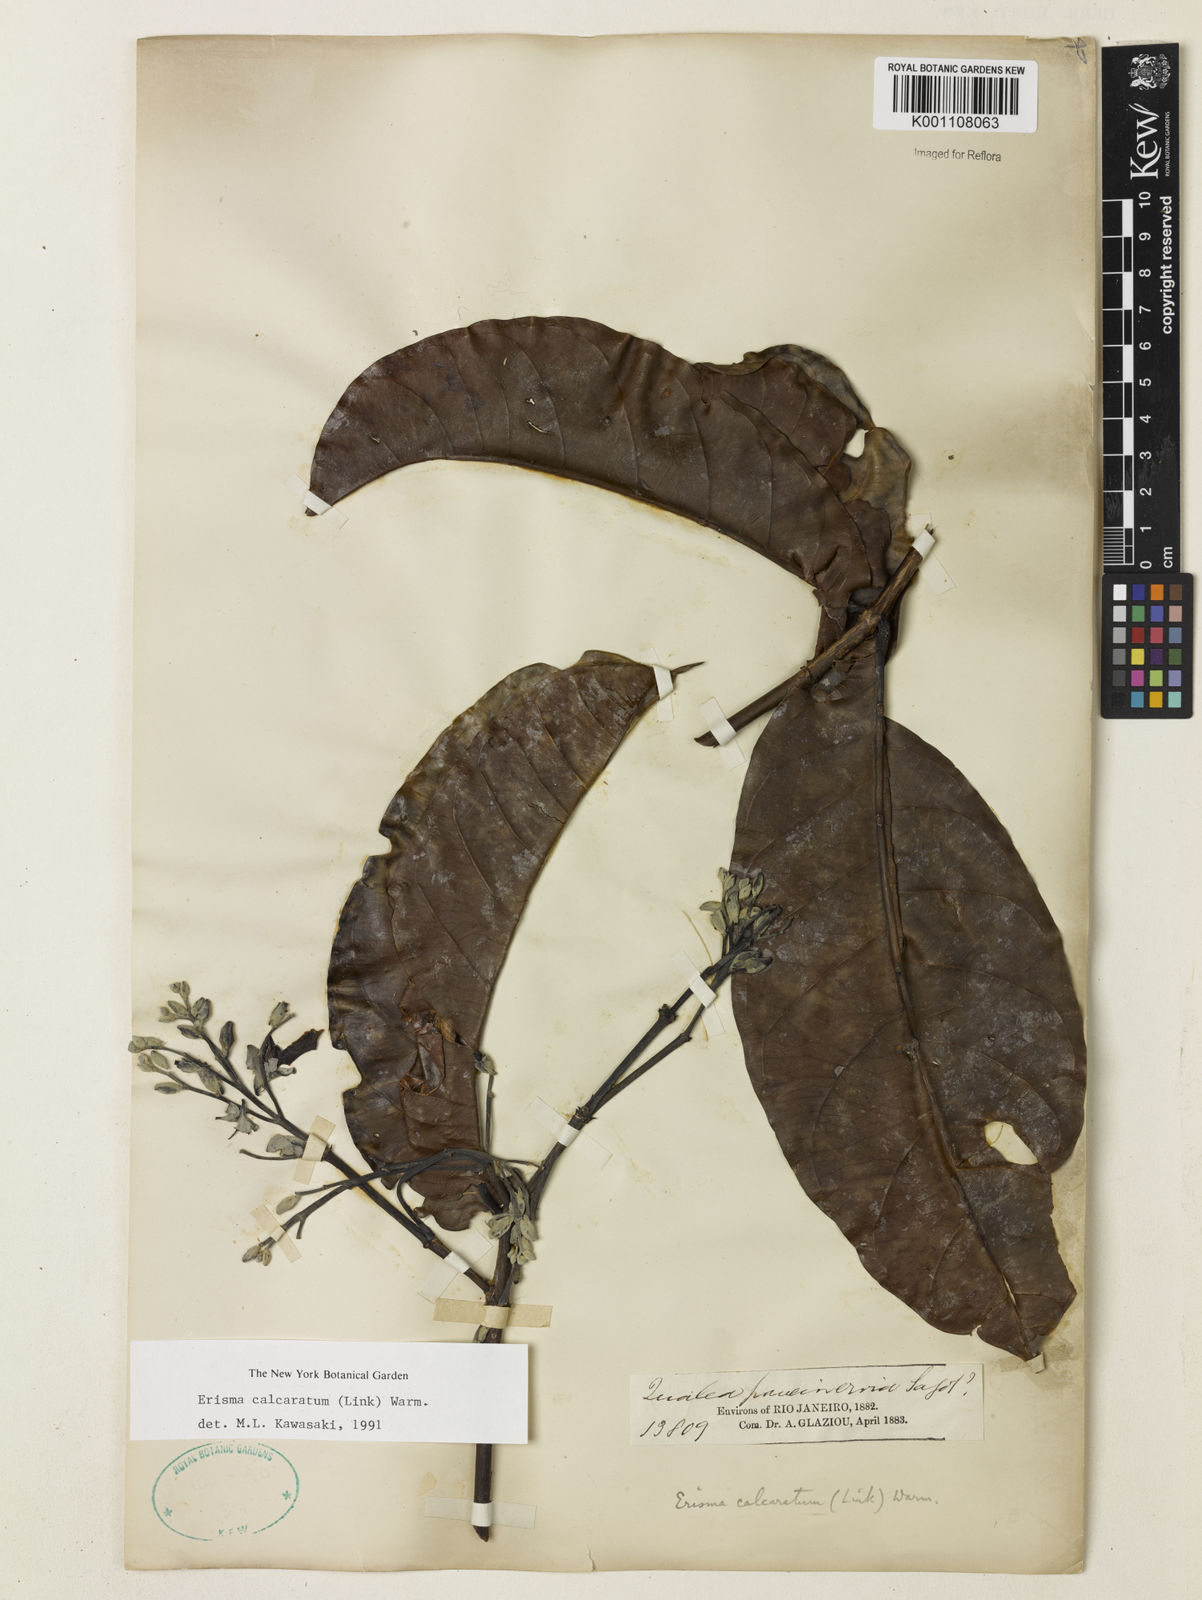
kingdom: Plantae
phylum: Tracheophyta
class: Magnoliopsida
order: Myrtales
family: Vochysiaceae
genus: Erisma
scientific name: Erisma calcaratum
